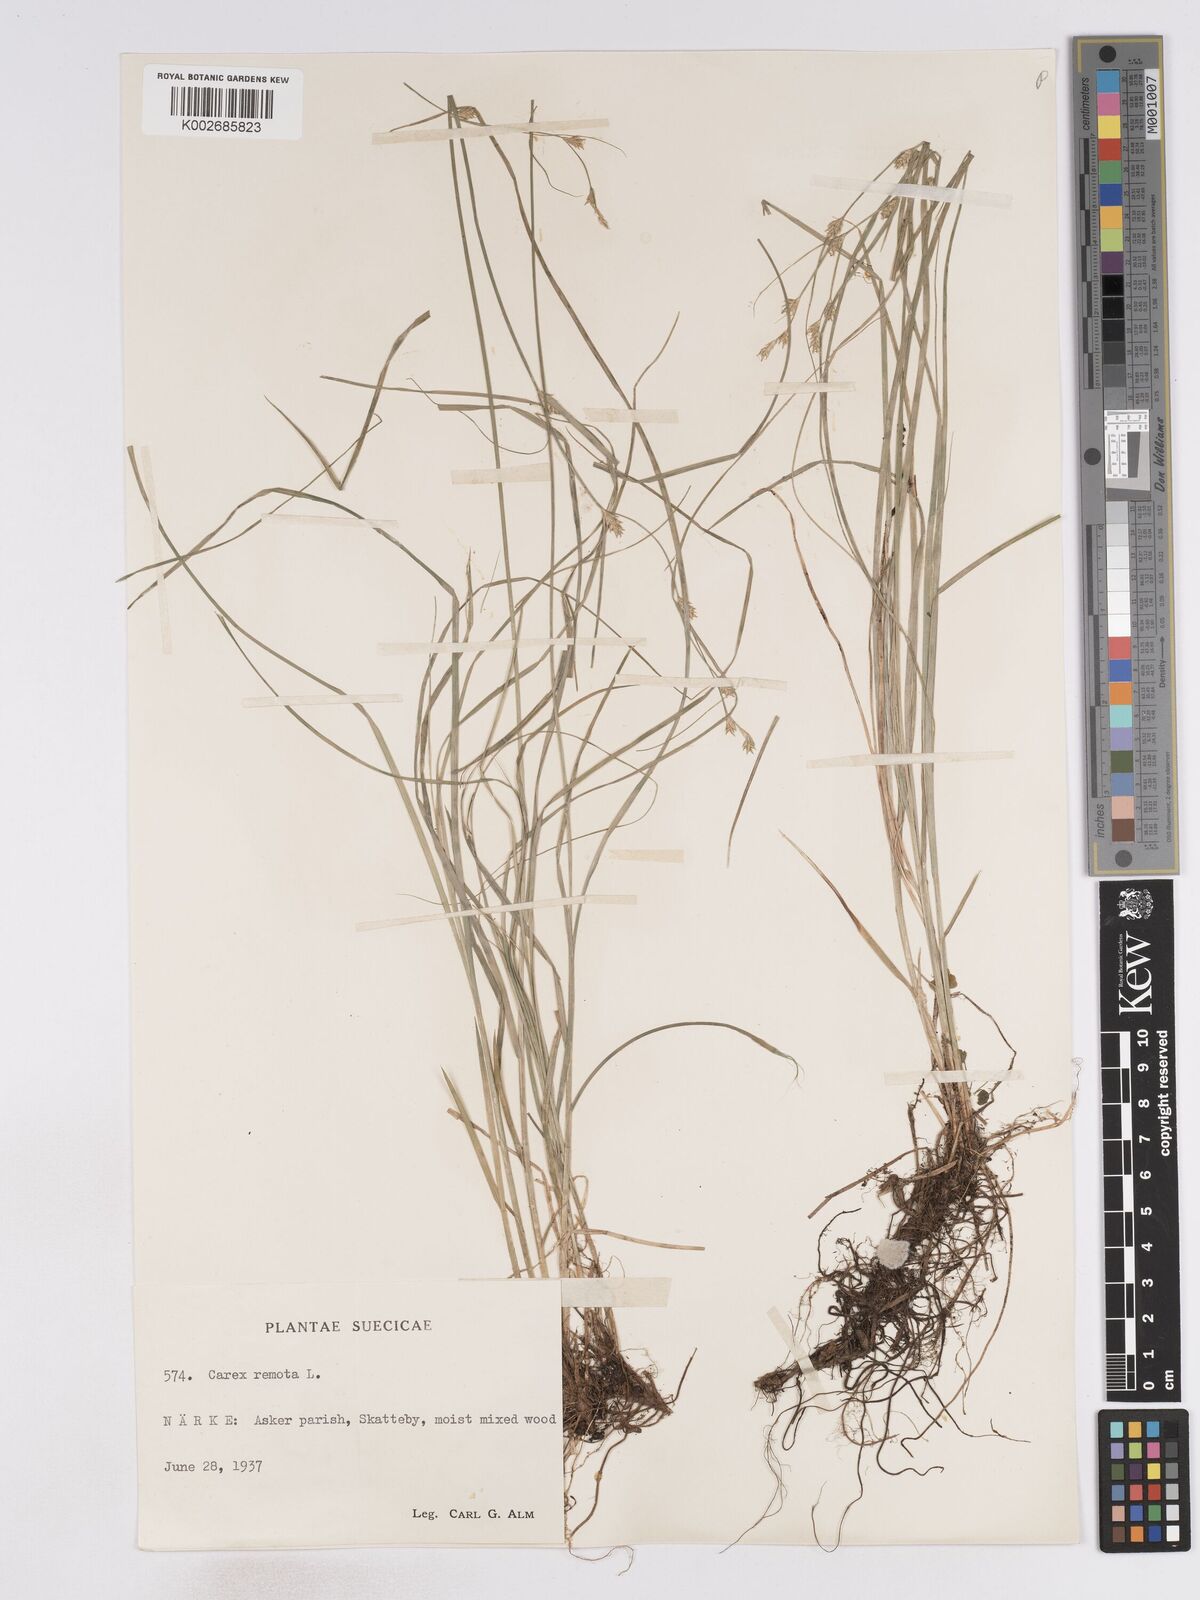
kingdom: Plantae
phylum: Tracheophyta
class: Liliopsida
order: Poales
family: Cyperaceae
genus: Carex
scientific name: Carex remota
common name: Remote sedge
